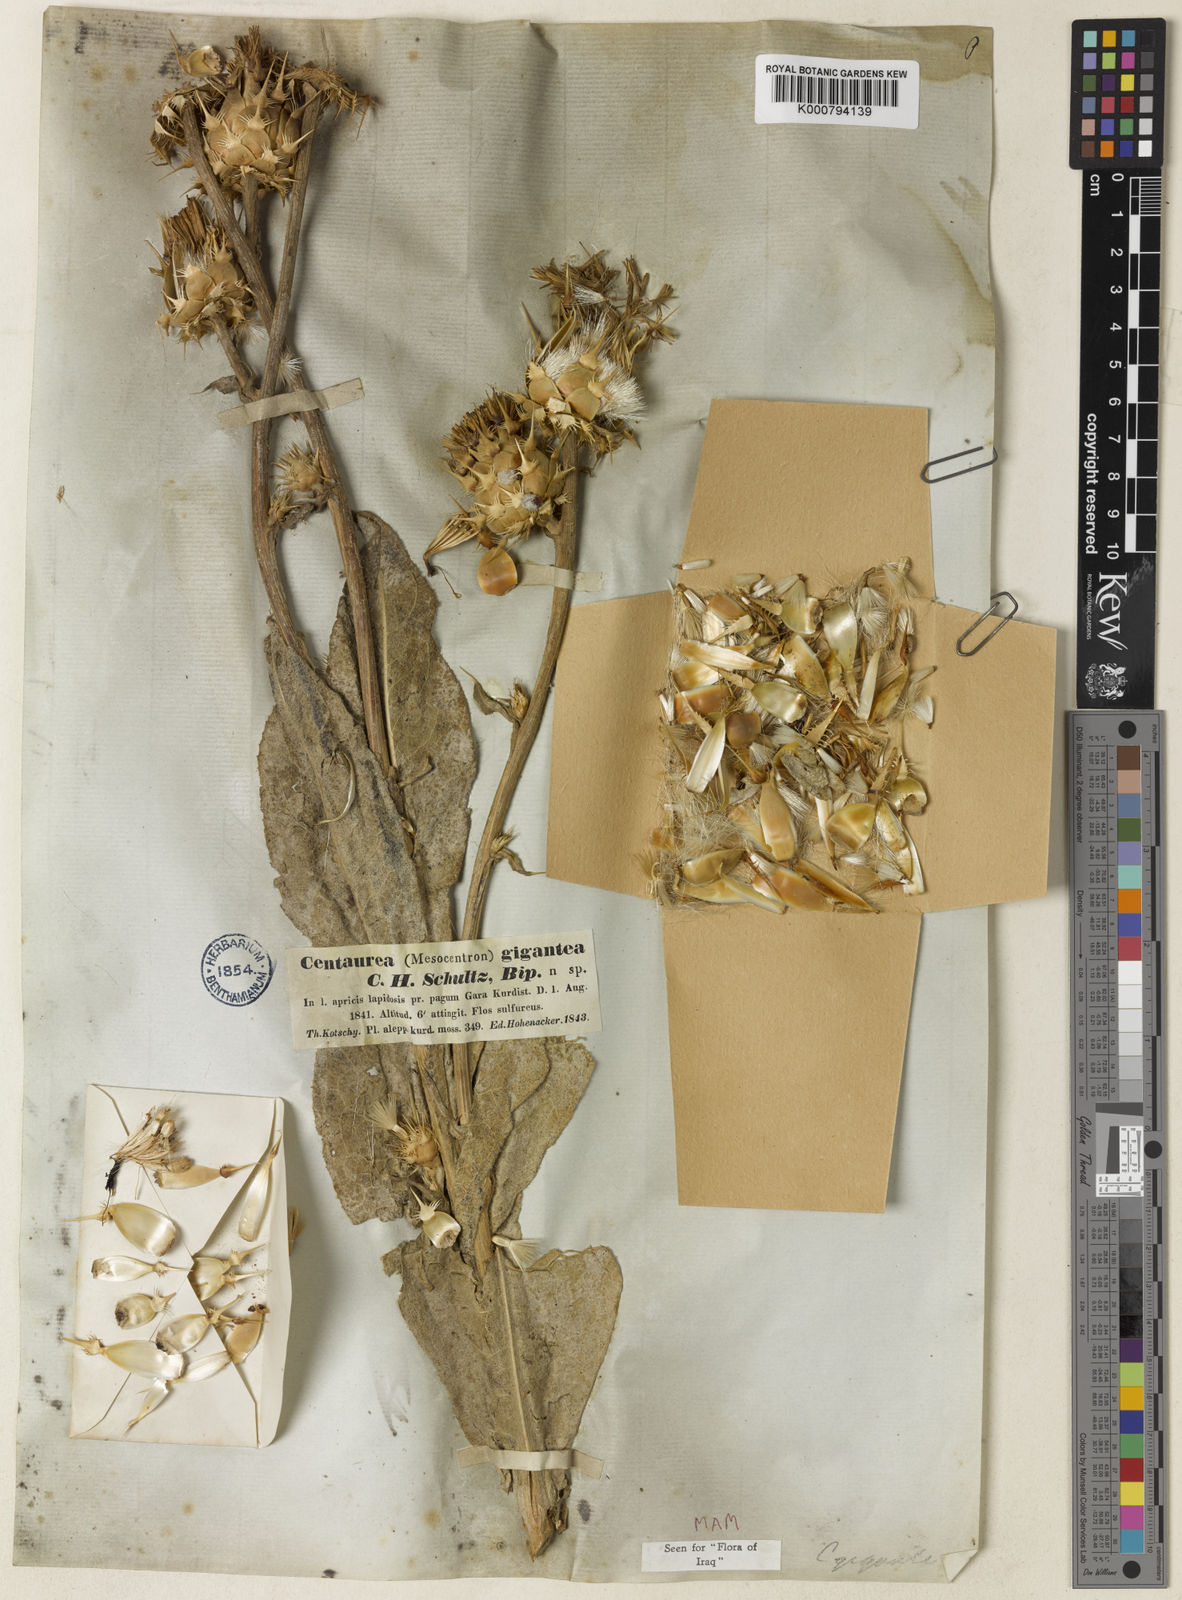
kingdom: Plantae
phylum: Tracheophyta
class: Magnoliopsida
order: Asterales
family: Asteraceae
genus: Centaurea
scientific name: Centaurea gigantea
